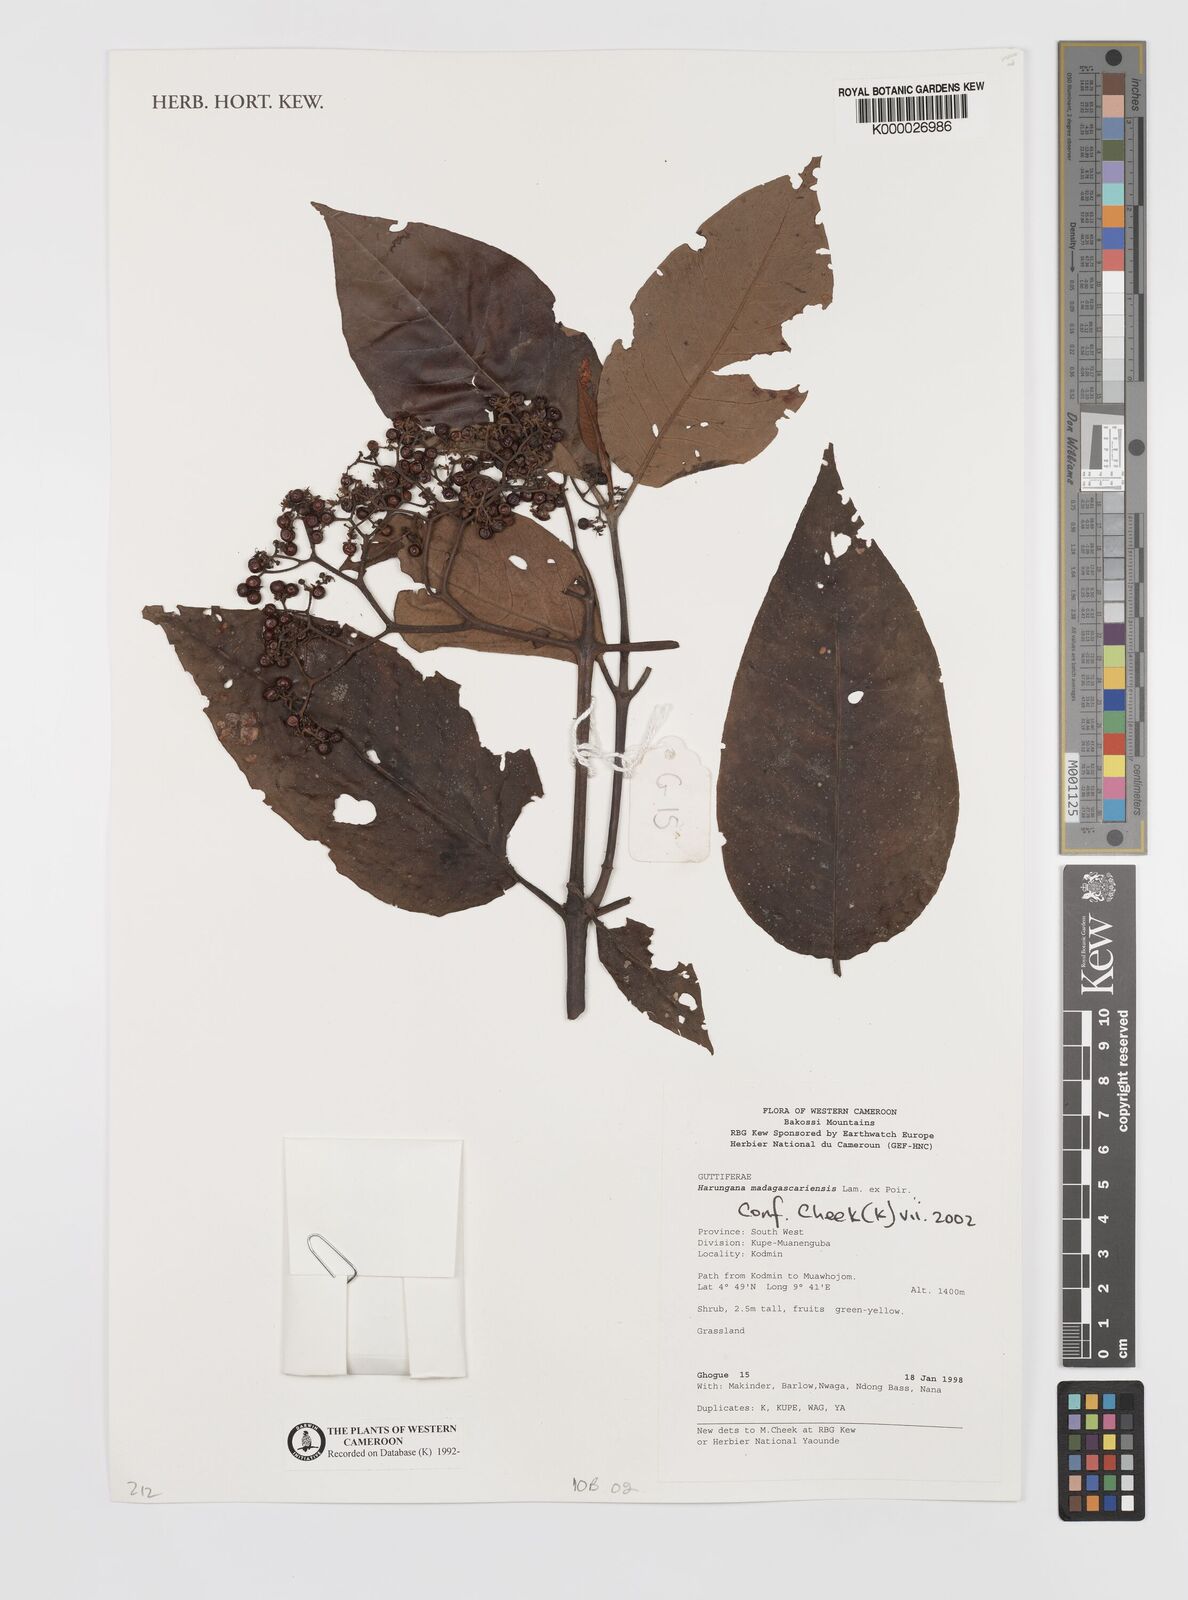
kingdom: Plantae
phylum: Tracheophyta
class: Magnoliopsida
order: Malpighiales
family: Hypericaceae
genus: Harungana
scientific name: Harungana madagascariensis
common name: Orange milktree
